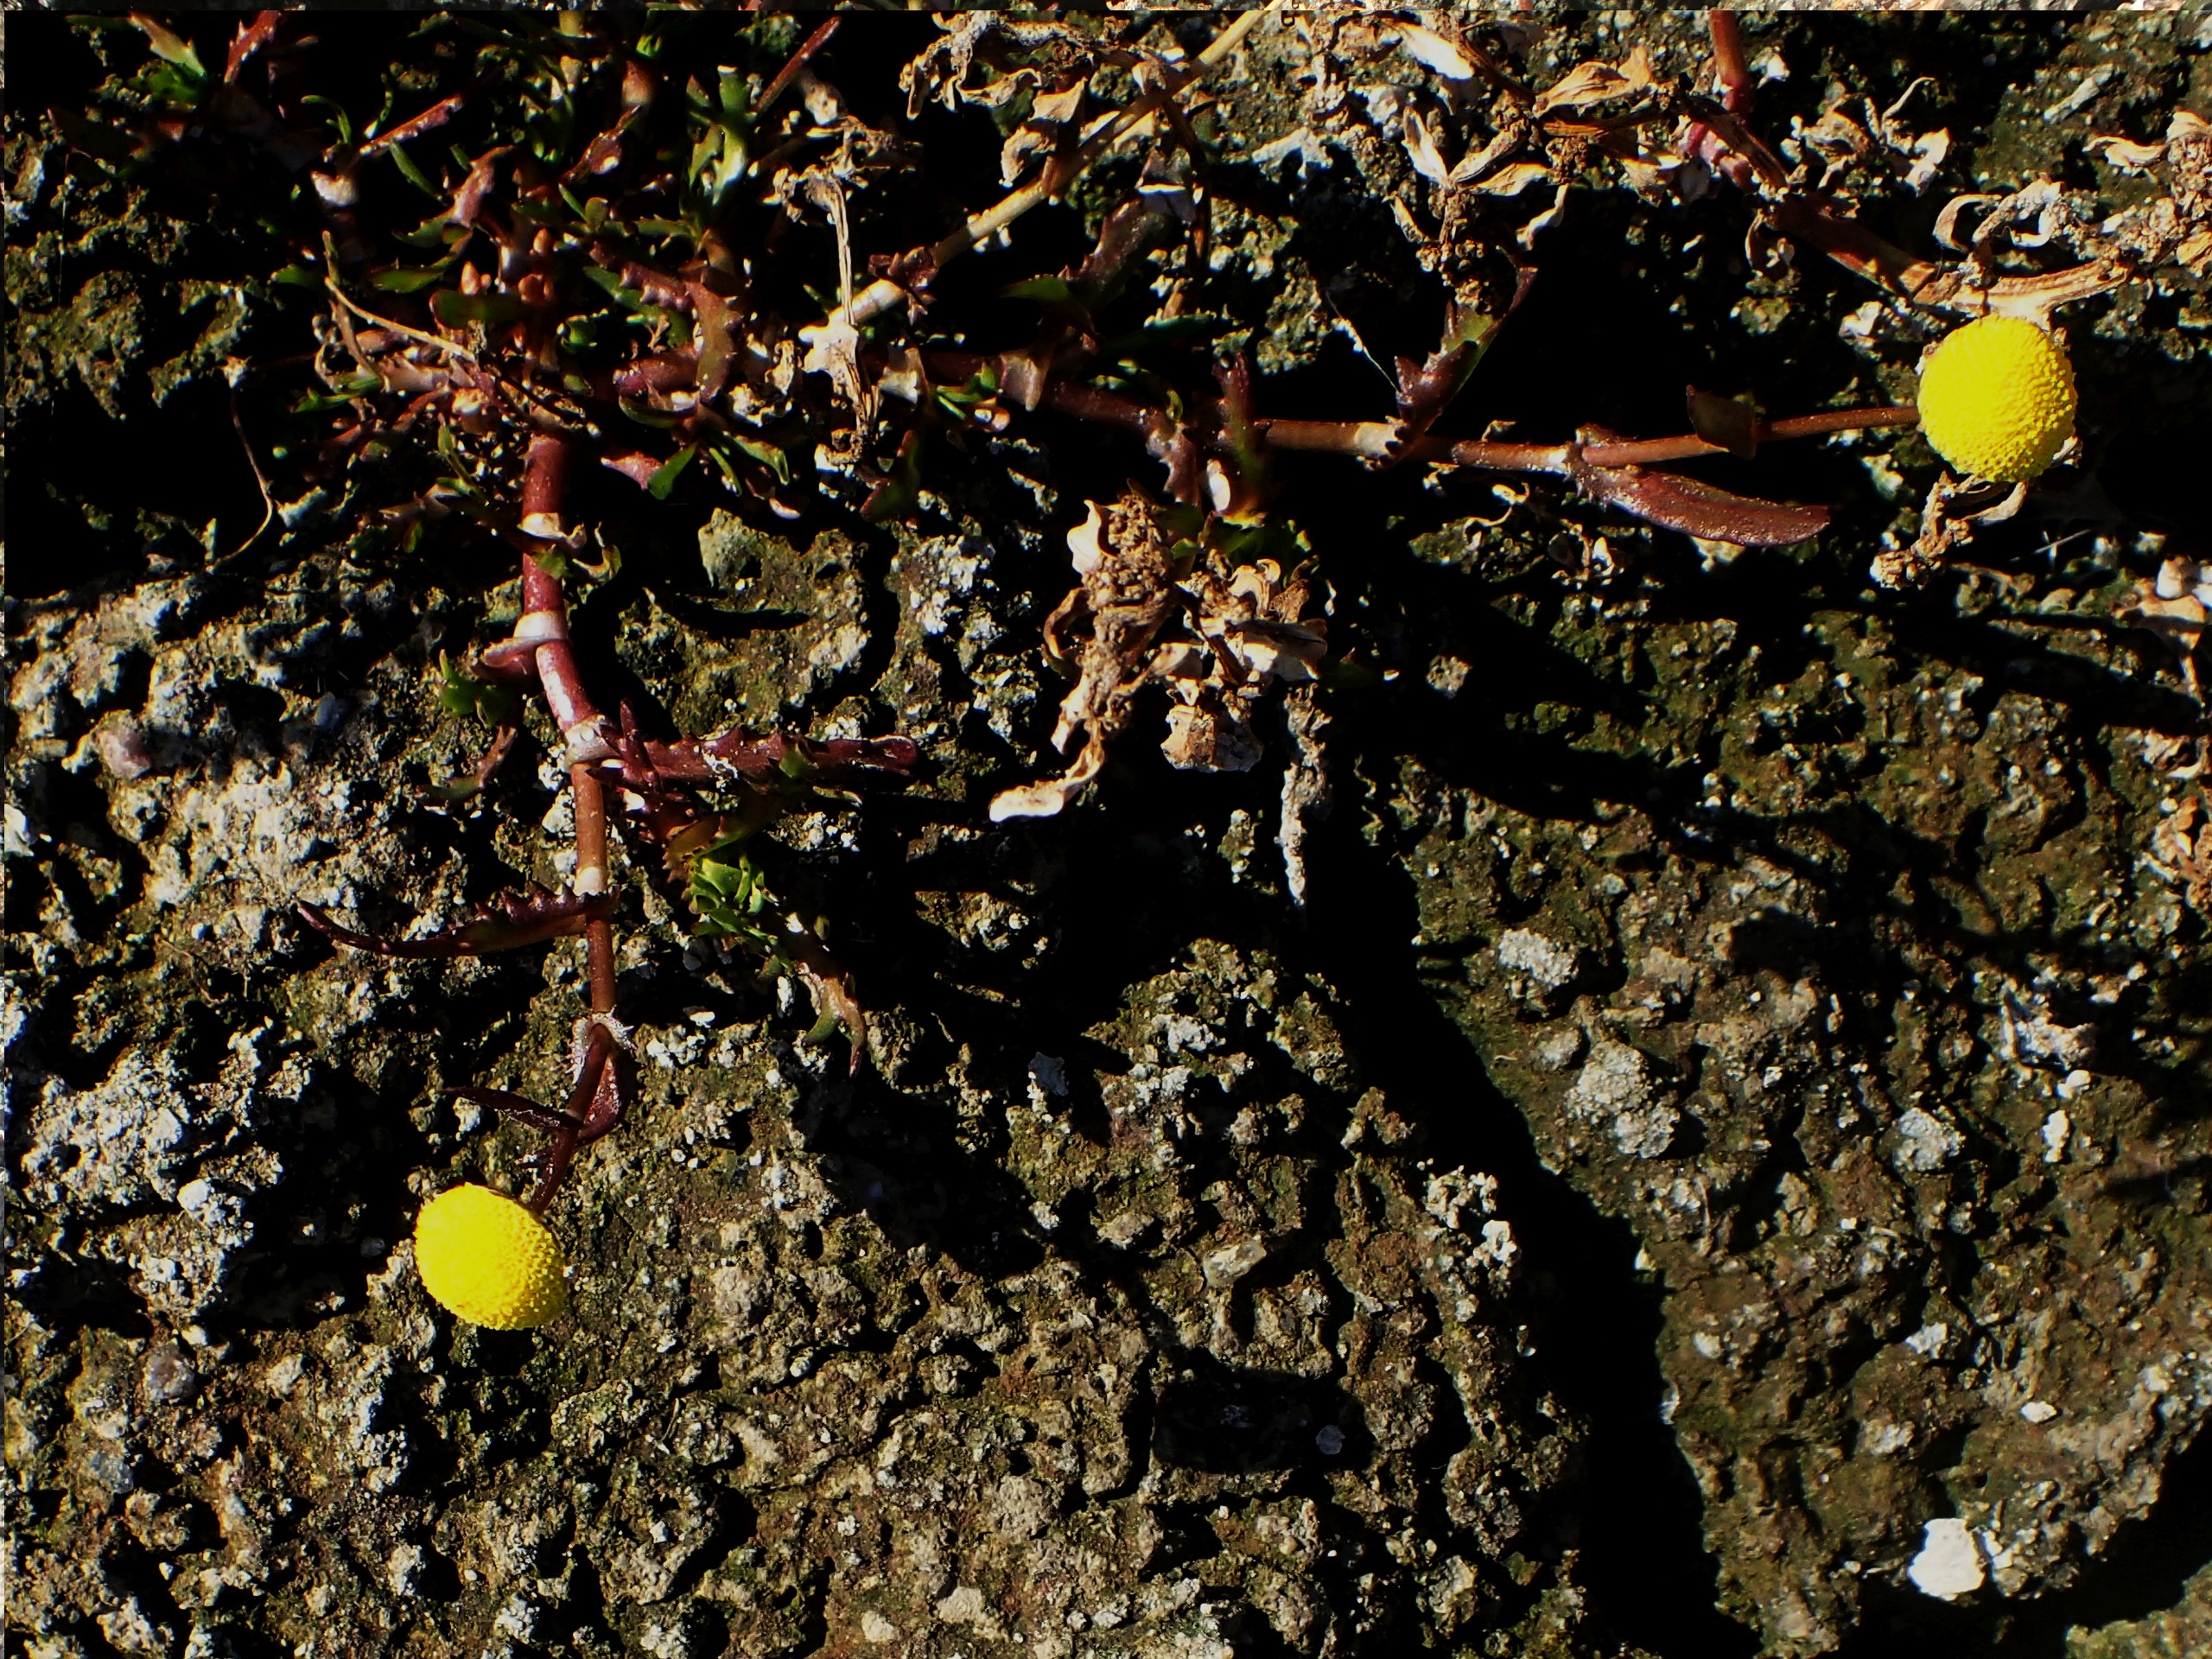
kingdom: Plantae
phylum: Tracheophyta
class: Magnoliopsida
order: Asterales
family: Asteraceae
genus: Cotula
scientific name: Cotula coronopifolia
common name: Firkløft
